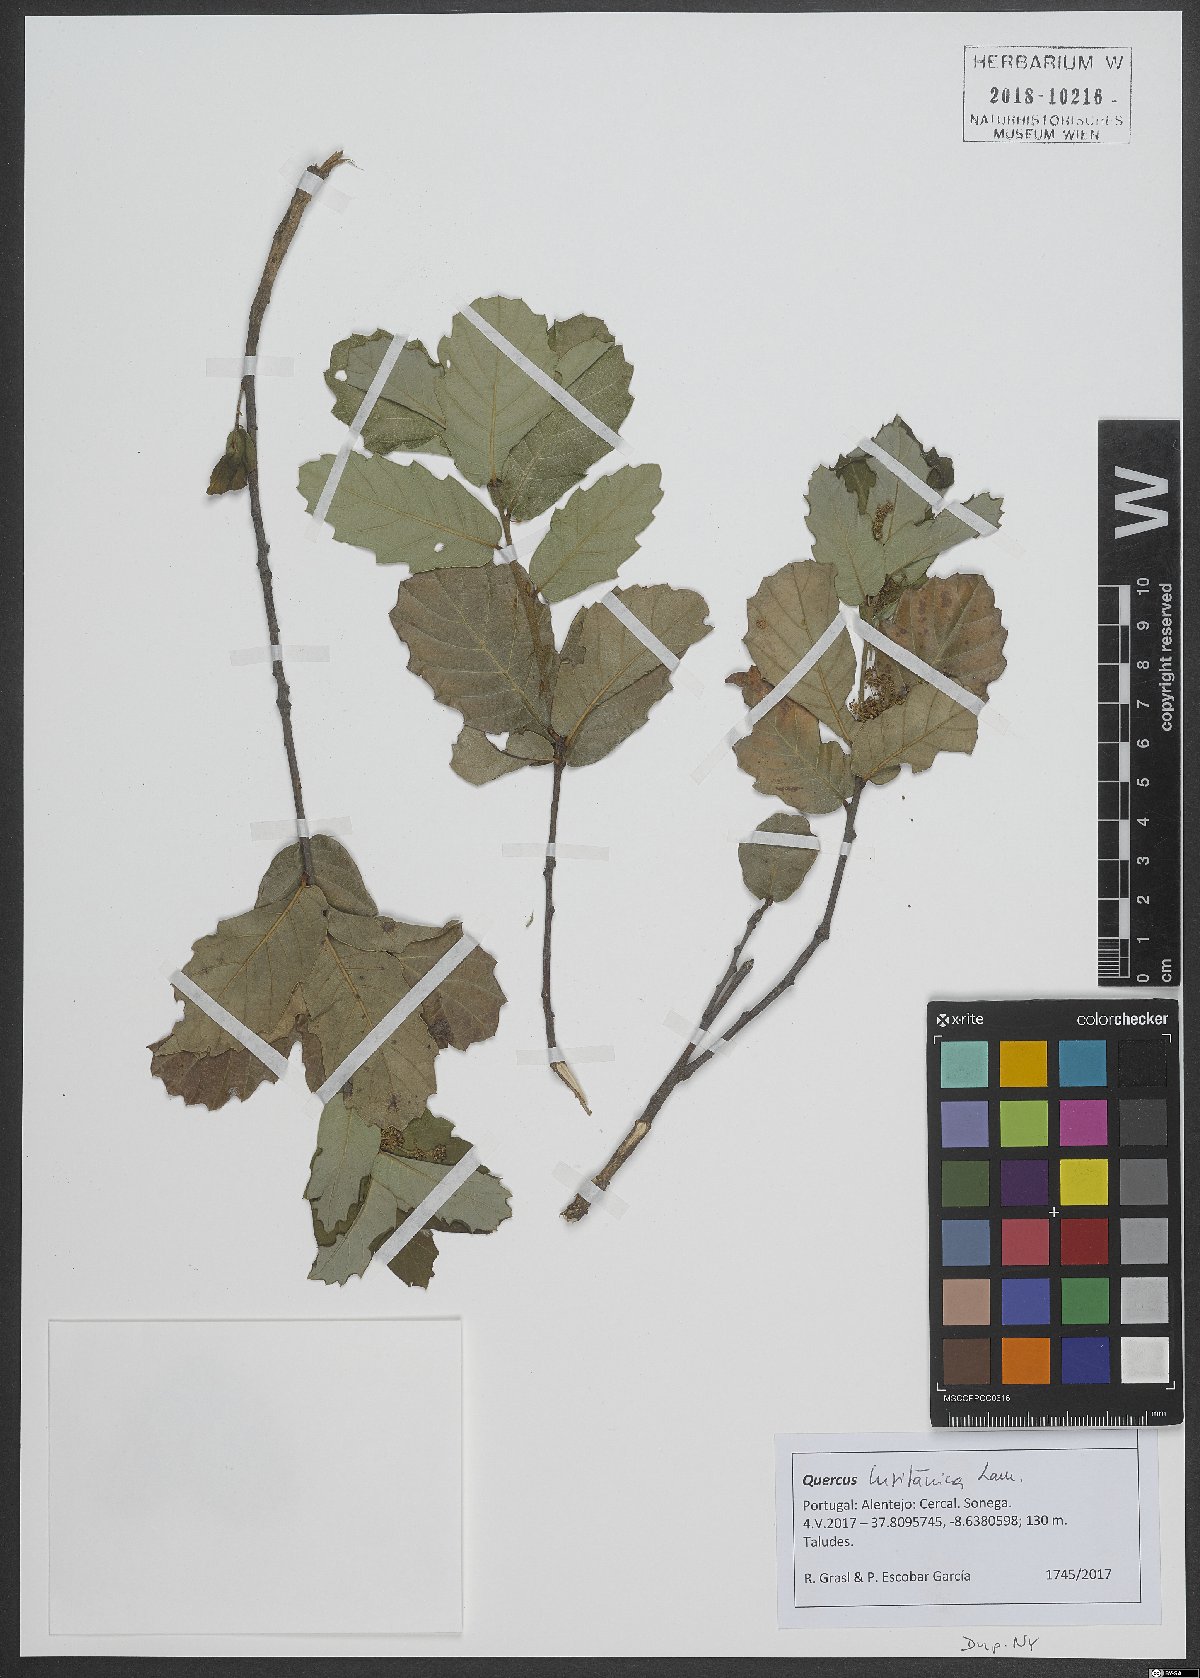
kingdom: Plantae
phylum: Tracheophyta
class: Magnoliopsida
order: Fagales
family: Fagaceae
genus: Quercus
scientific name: Quercus lusitanica
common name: Scrub gall oak
